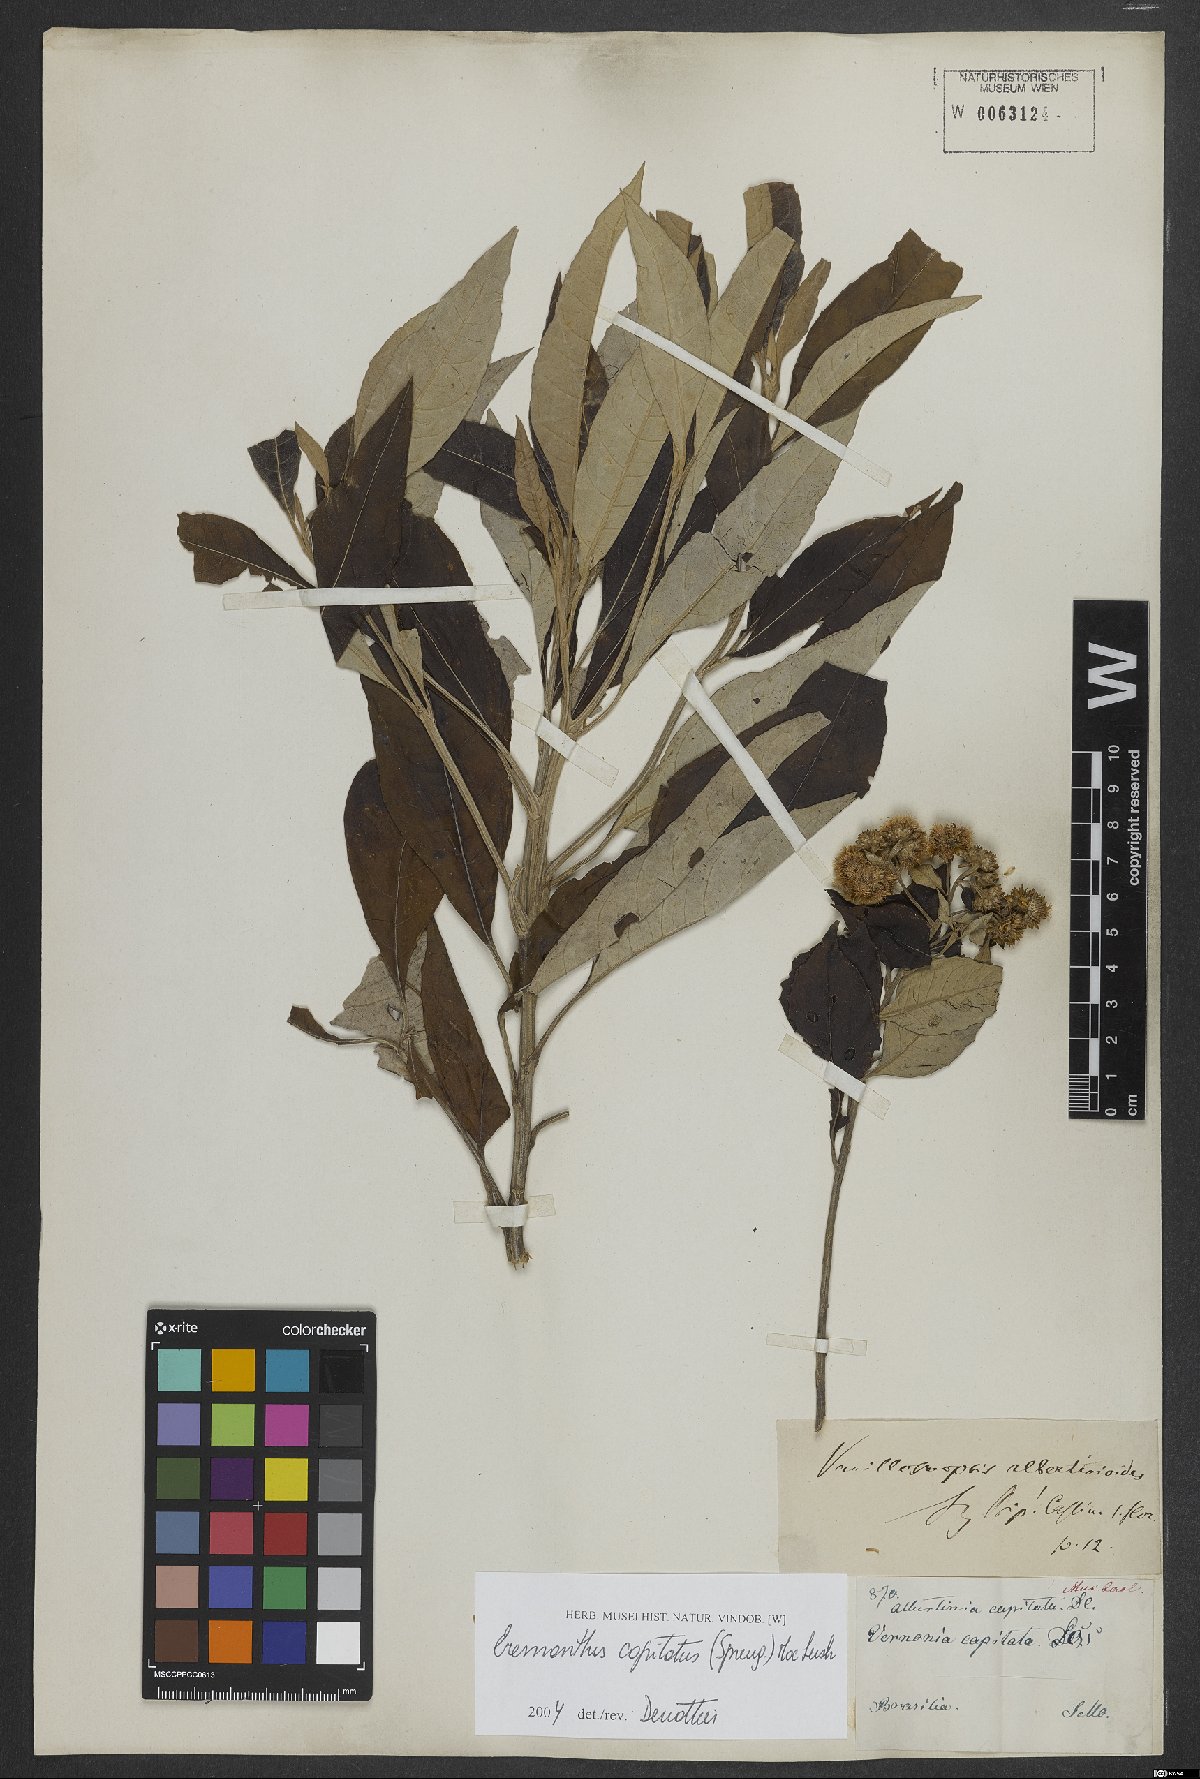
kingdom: Plantae
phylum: Tracheophyta
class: Magnoliopsida
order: Asterales
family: Asteraceae
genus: Eremanthus
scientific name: Eremanthus capitatus
